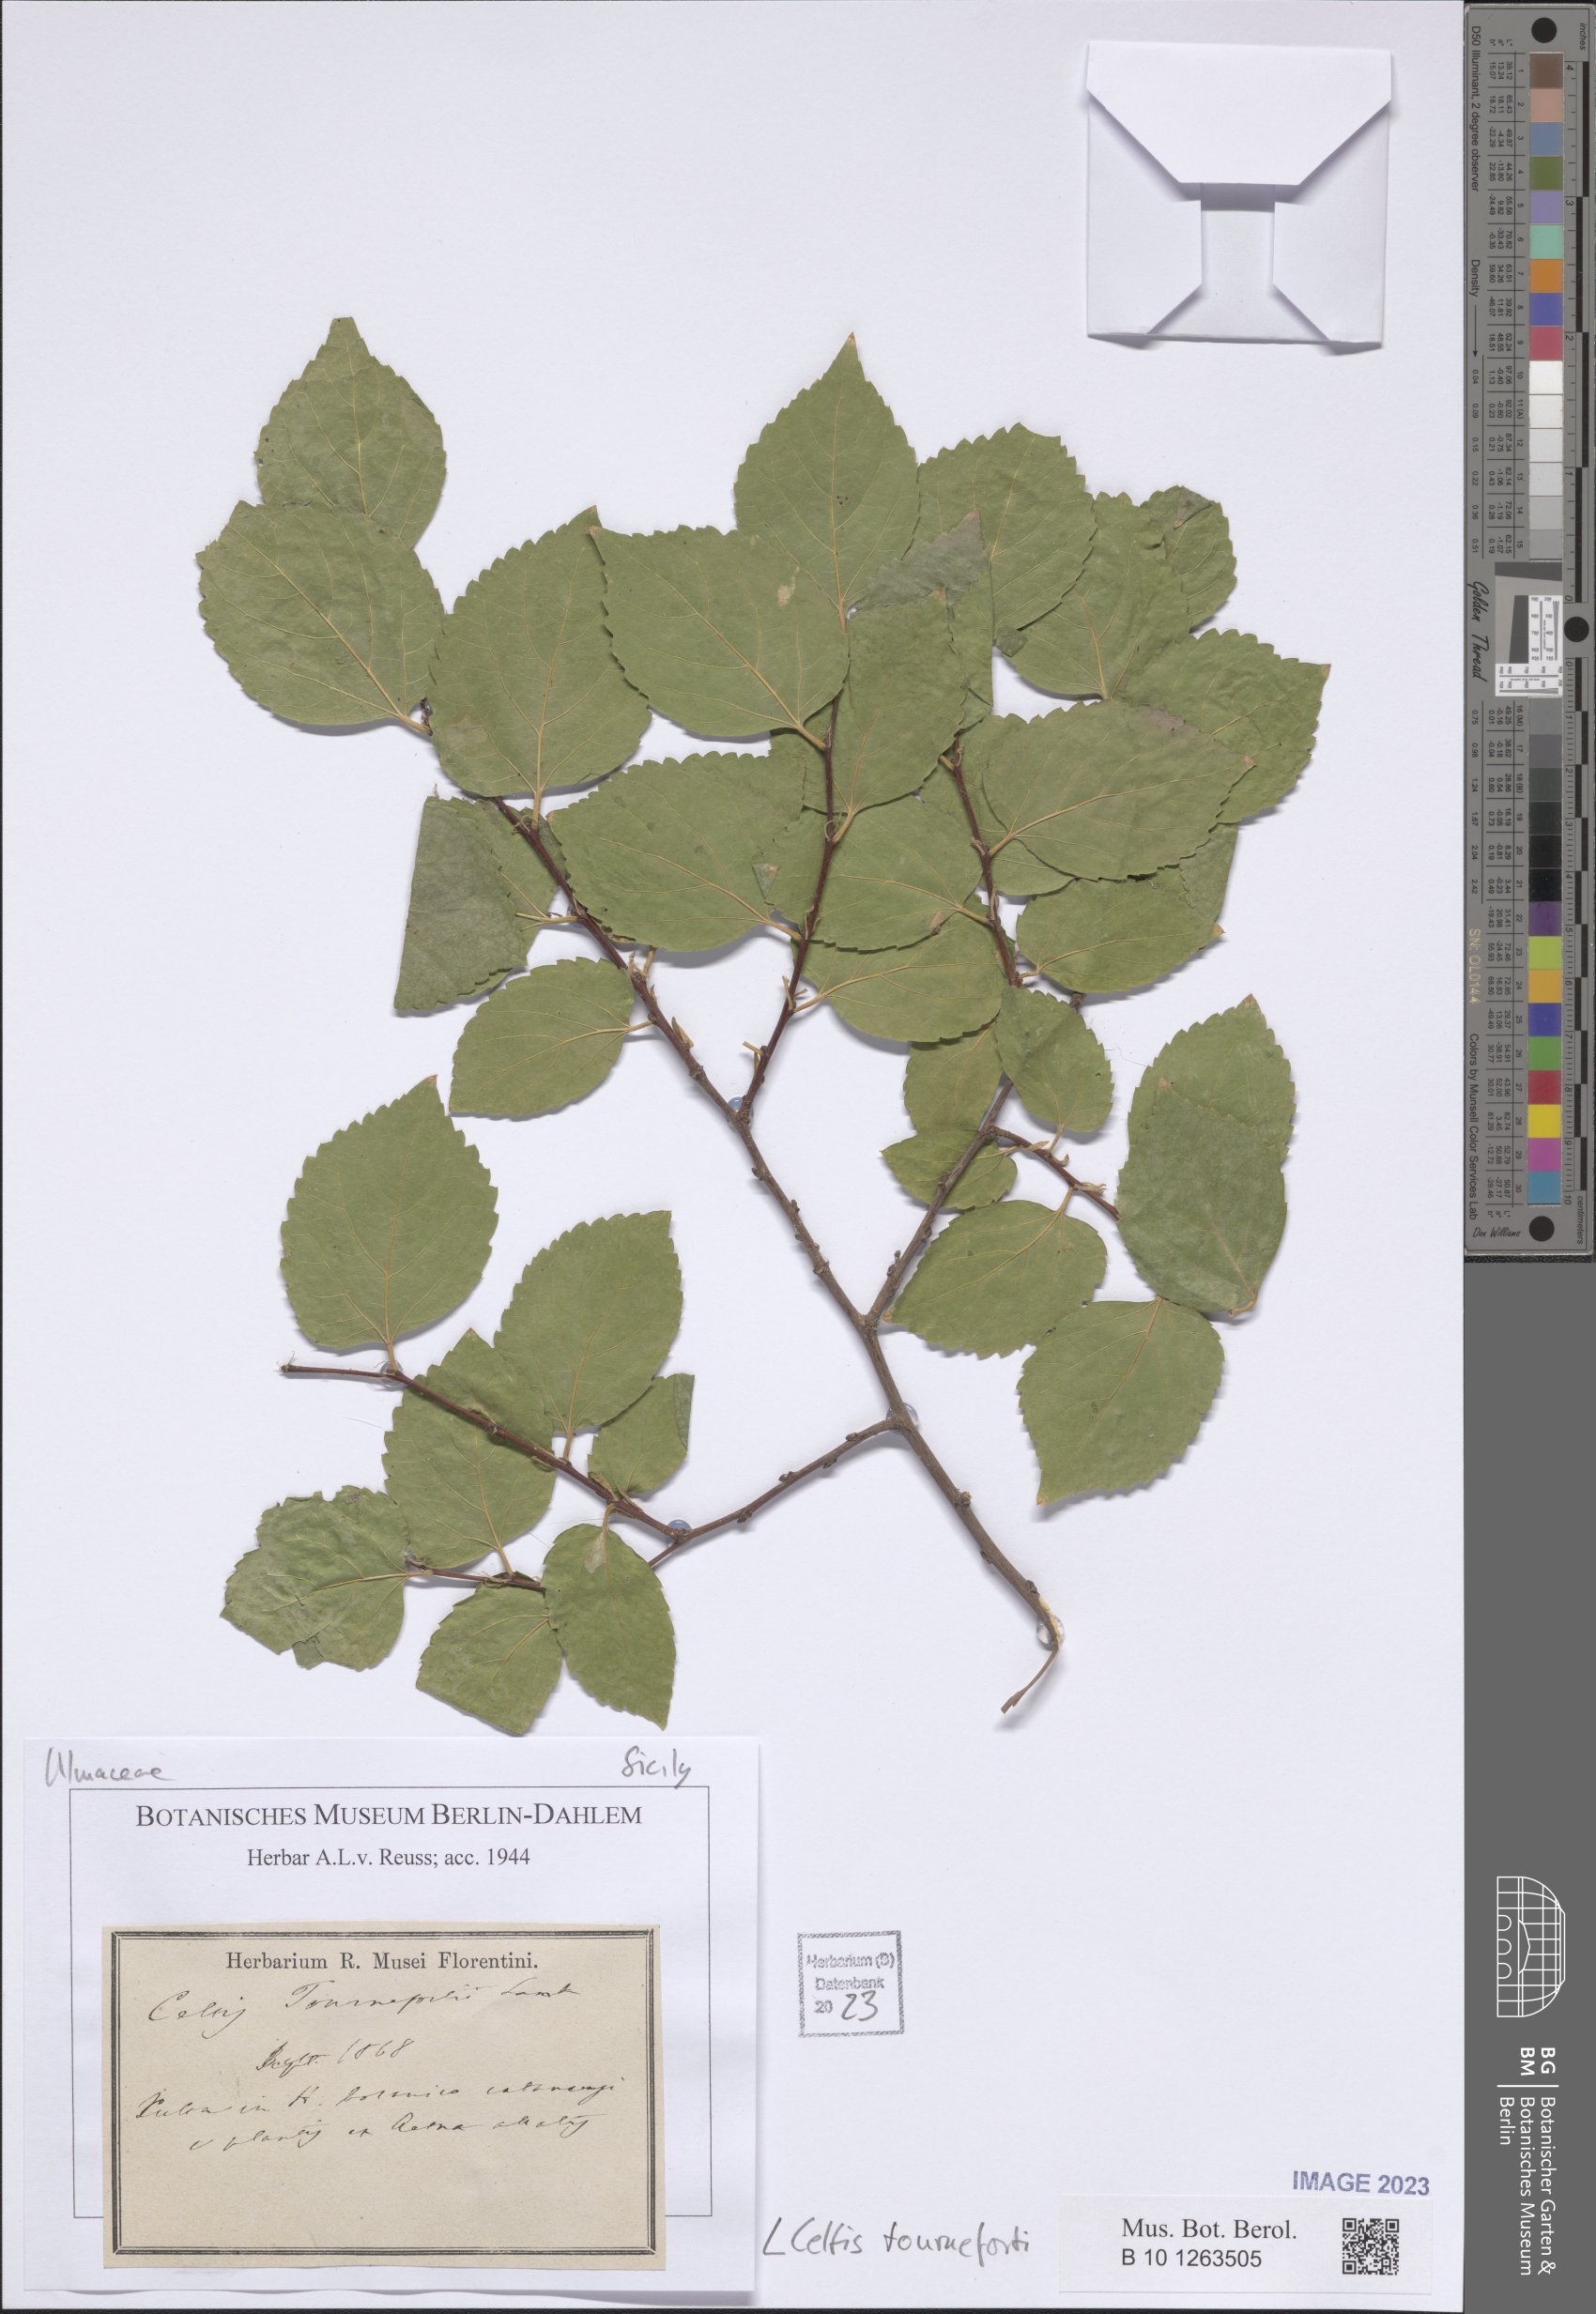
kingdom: Plantae
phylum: Tracheophyta
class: Magnoliopsida
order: Rosales
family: Cannabaceae
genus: Celtis
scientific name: Celtis tournefortii
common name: Oriental hackberry
